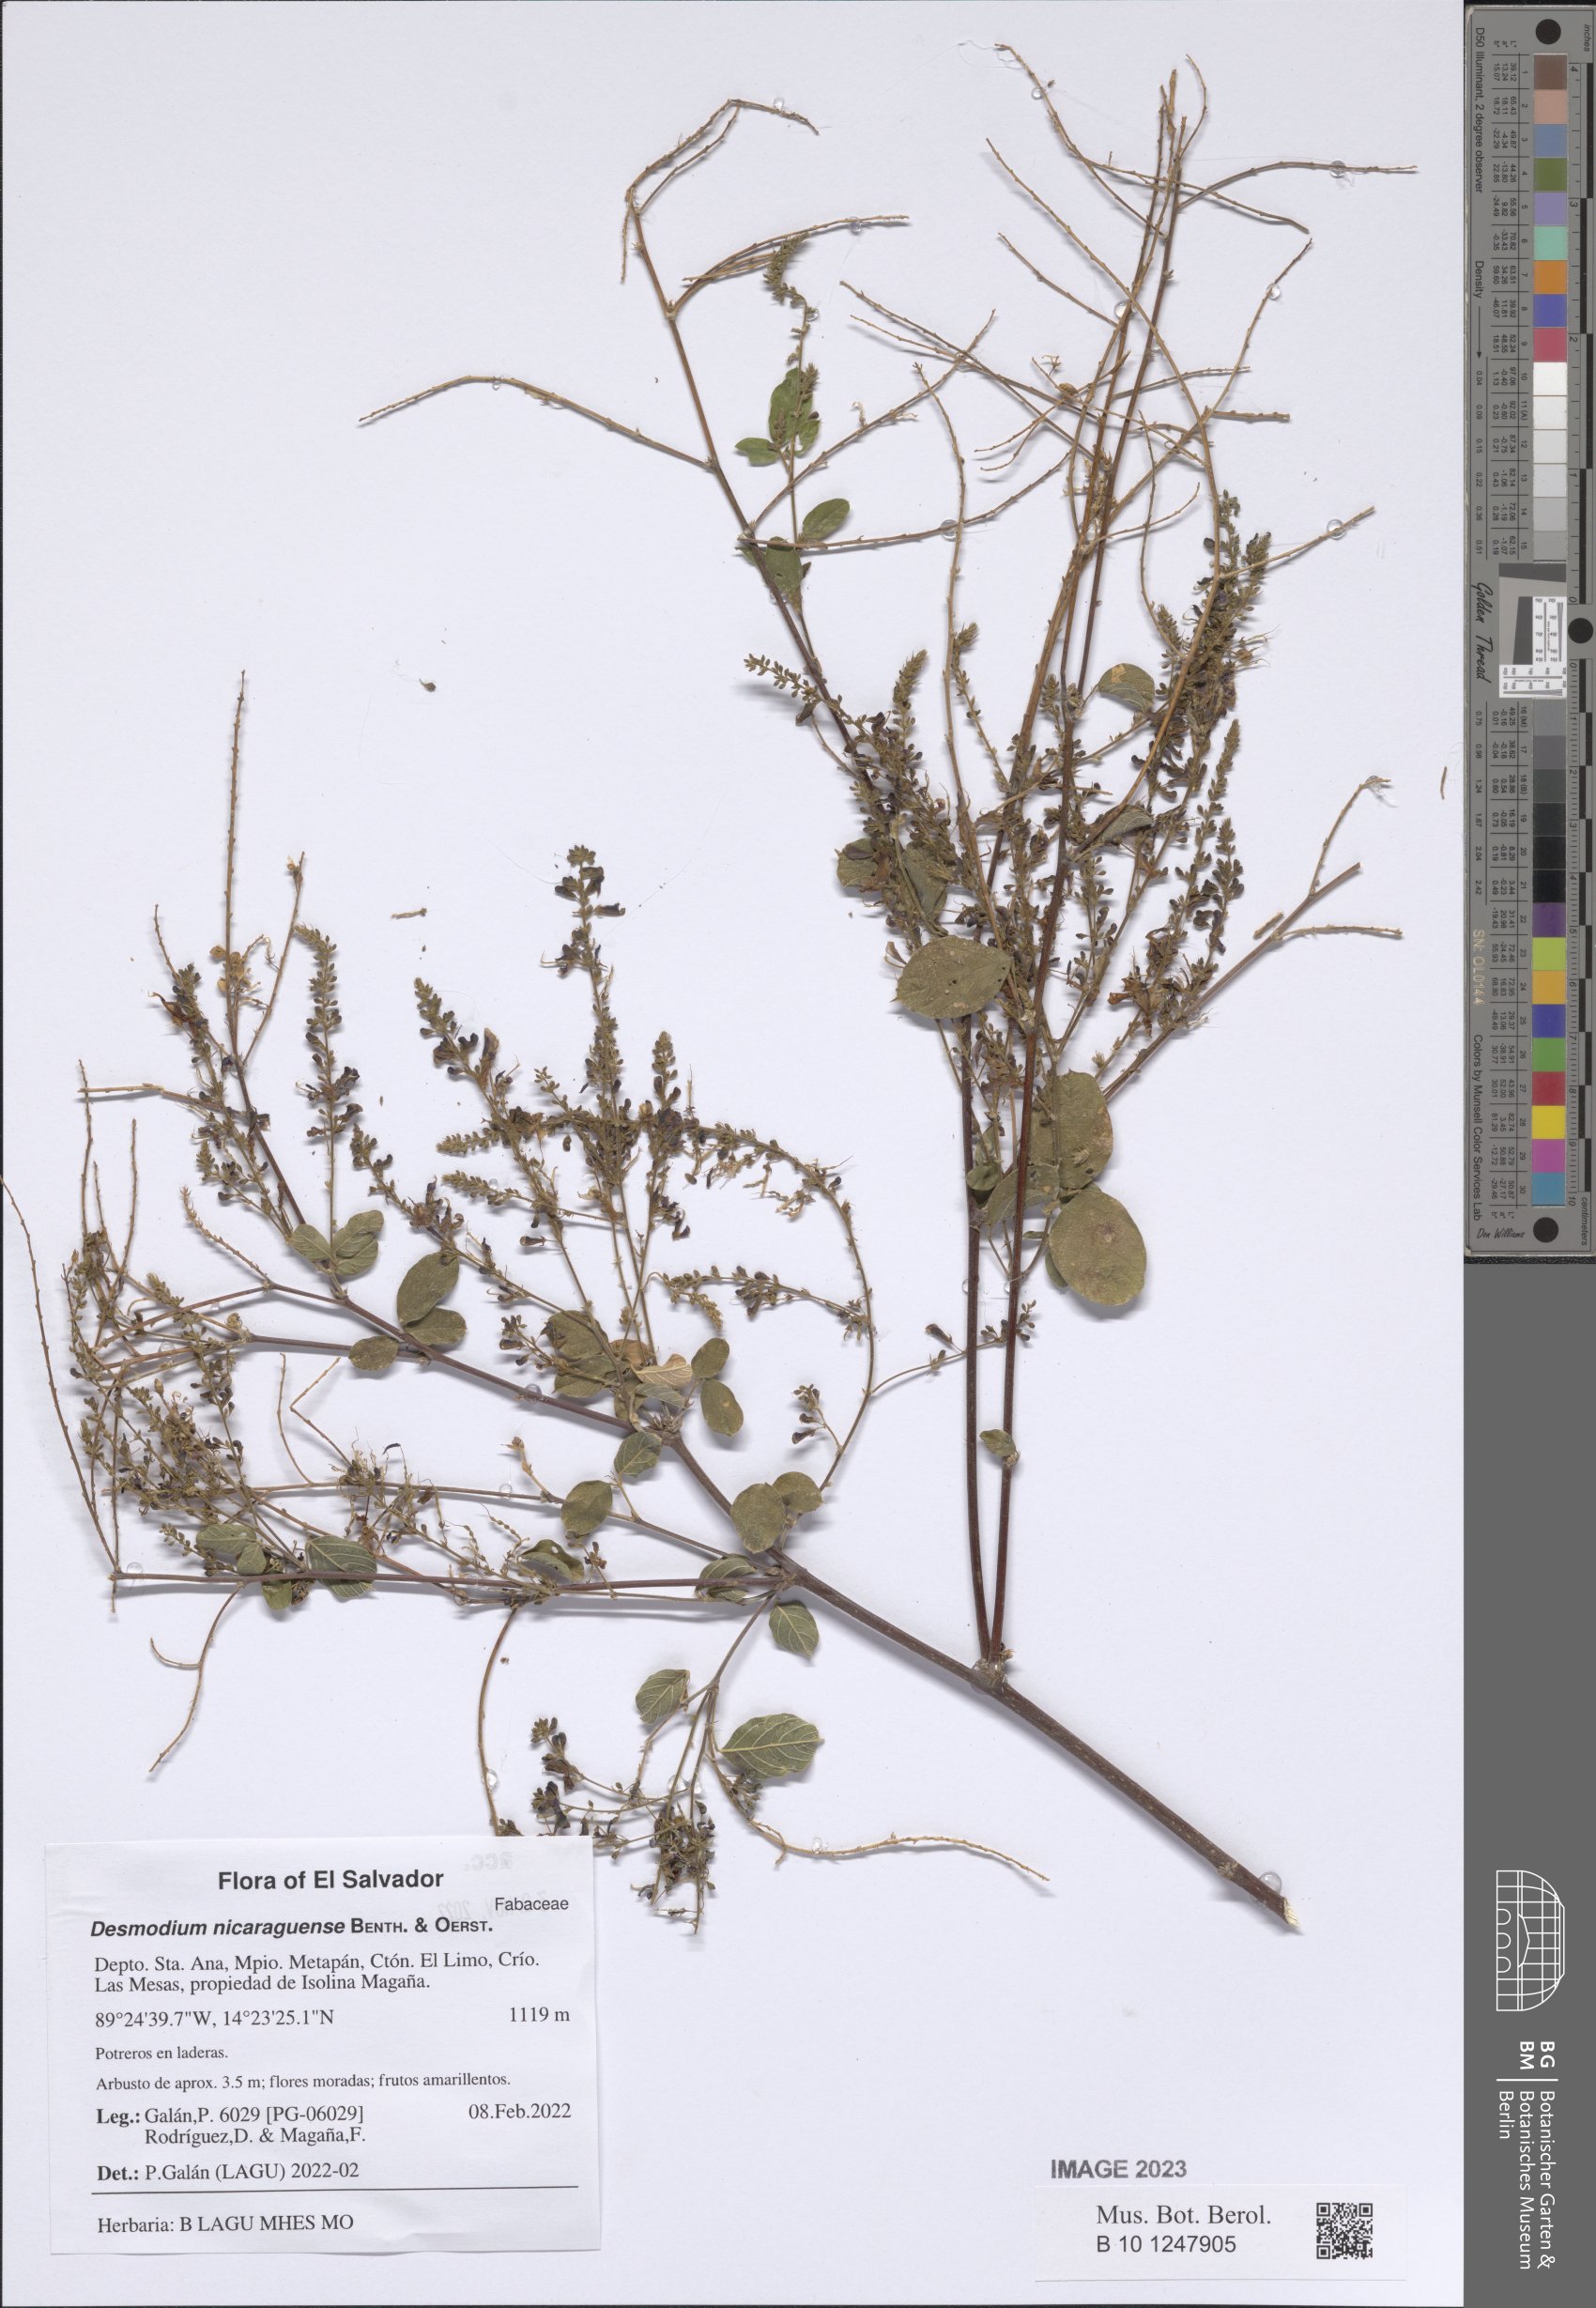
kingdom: Plantae
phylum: Tracheophyta
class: Magnoliopsida
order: Fabales
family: Fabaceae
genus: Desmodium
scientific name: Desmodium nicaraguense
